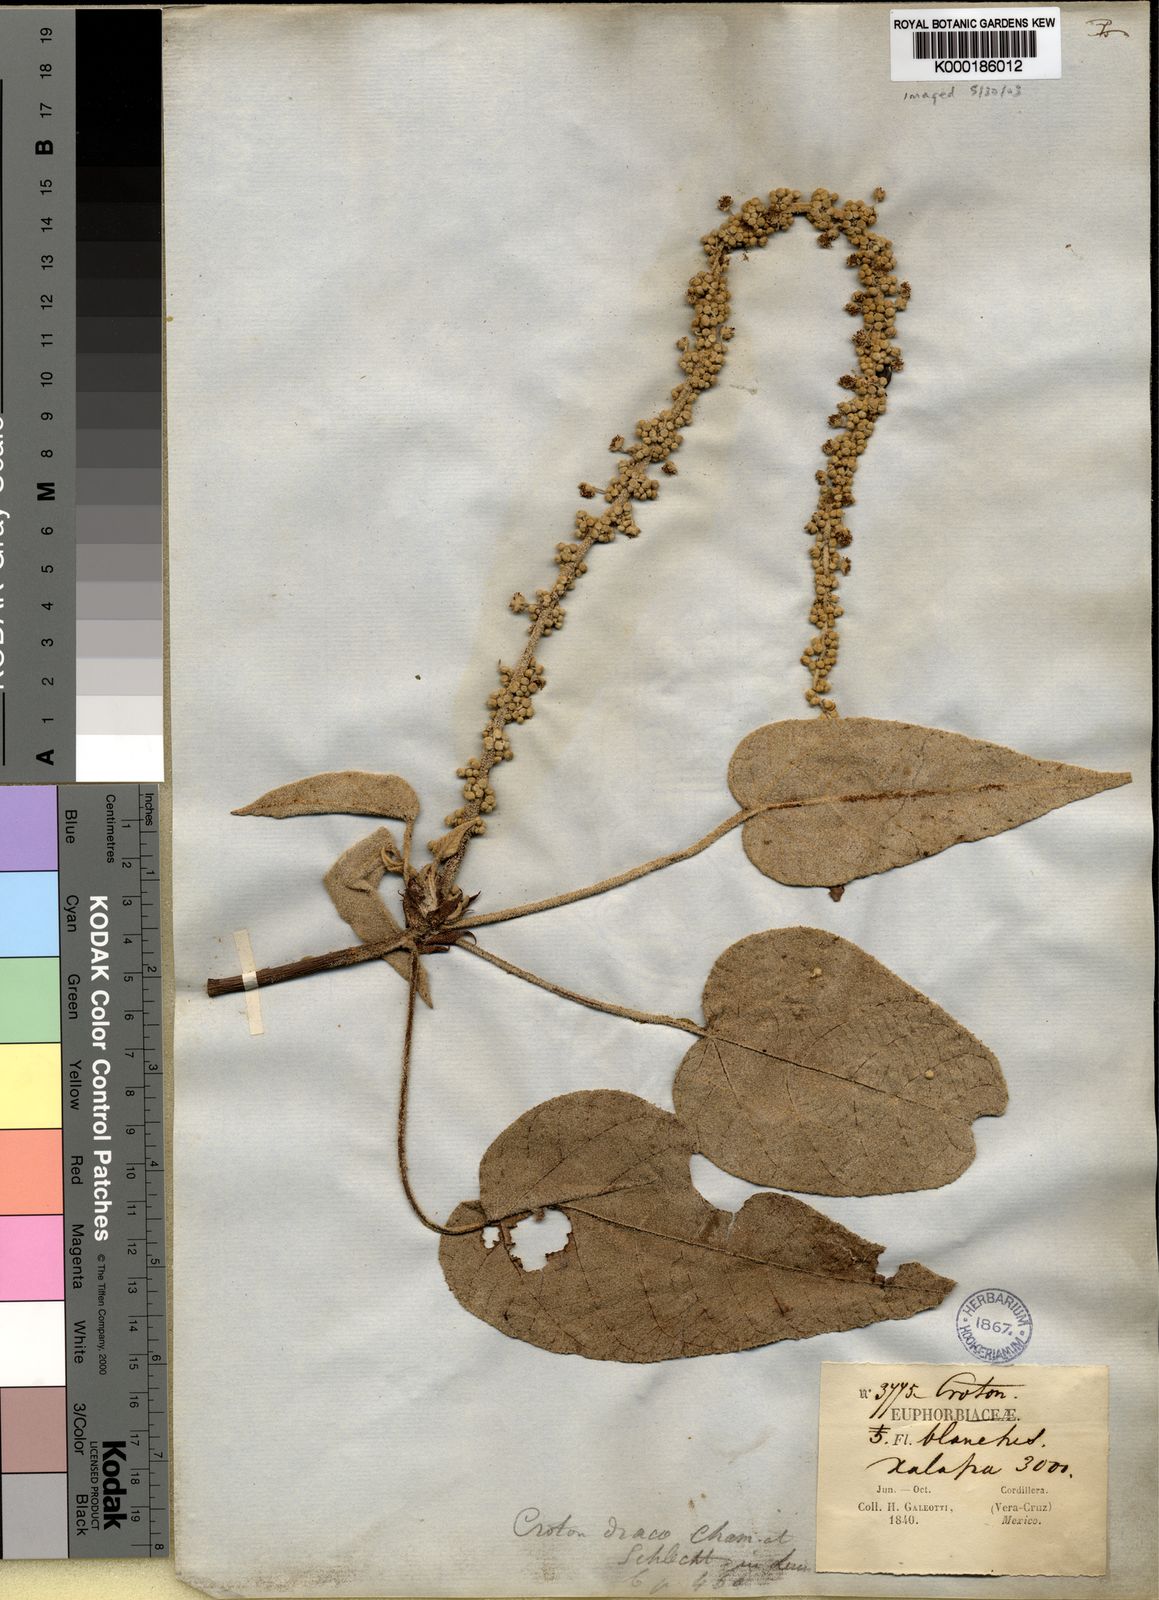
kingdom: Plantae
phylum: Tracheophyta
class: Magnoliopsida
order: Malpighiales
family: Euphorbiaceae
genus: Croton
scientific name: Croton draco
